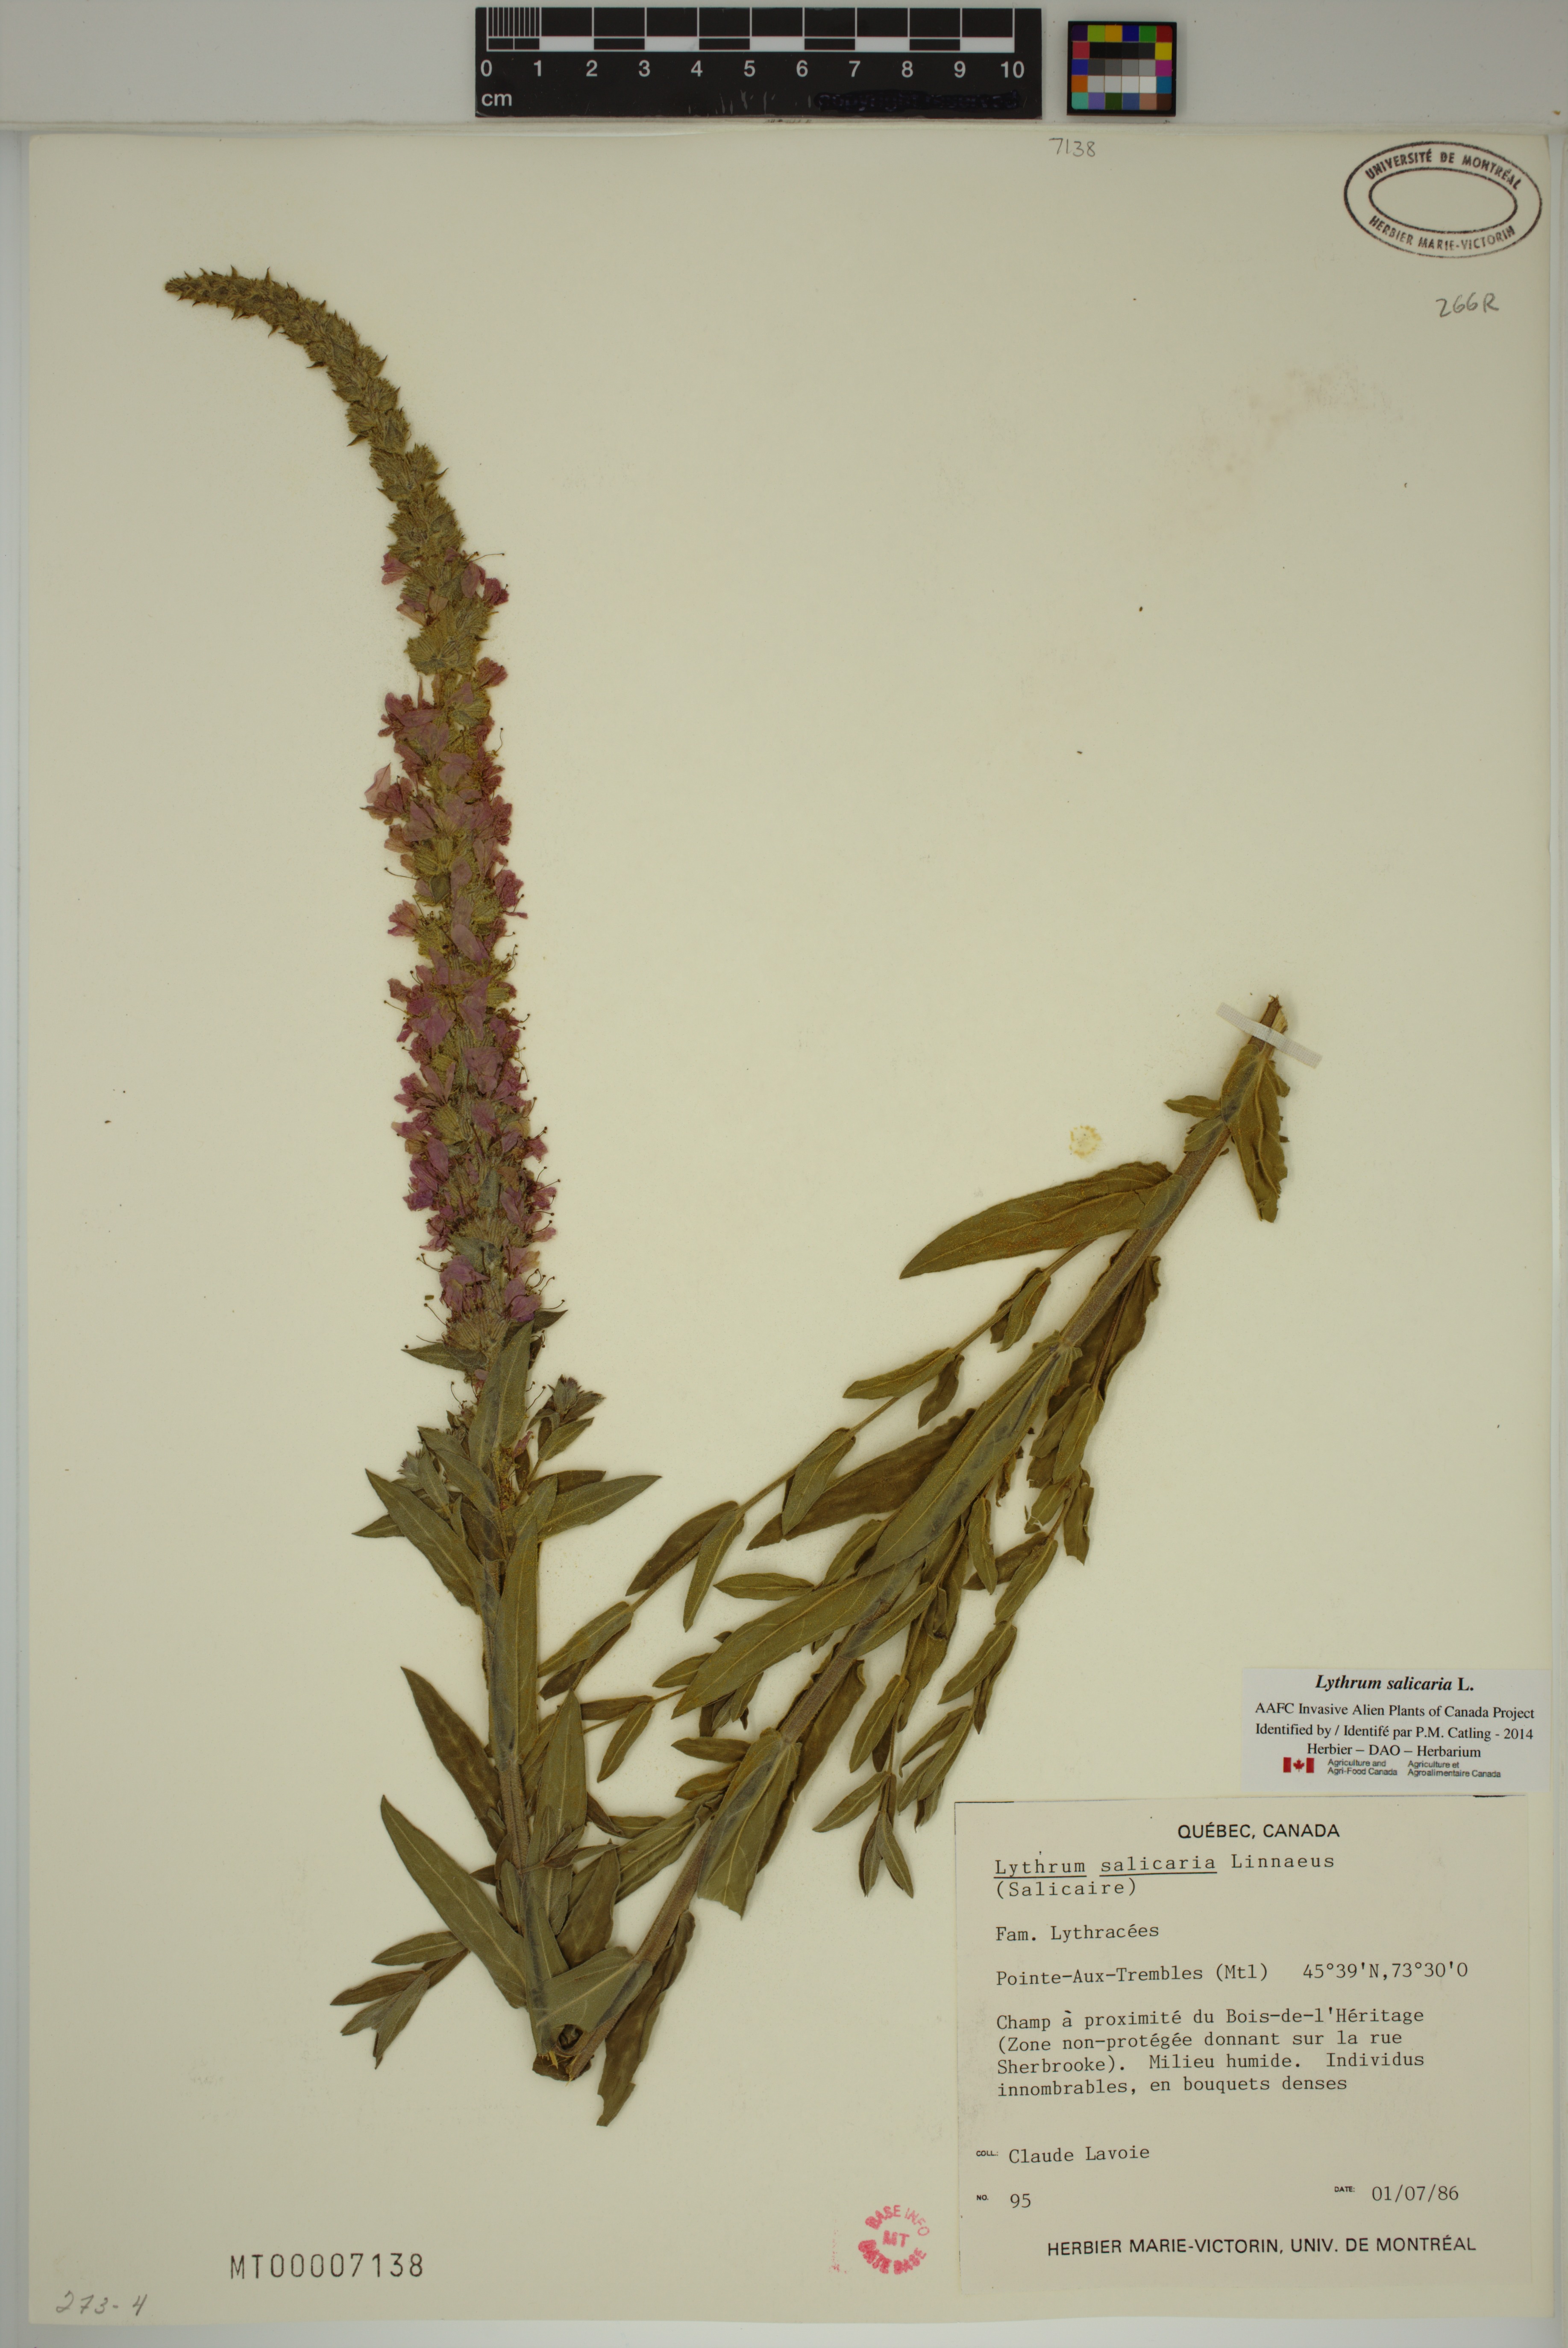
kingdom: Plantae
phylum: Tracheophyta
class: Magnoliopsida
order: Myrtales
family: Lythraceae
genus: Lythrum
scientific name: Lythrum salicaria
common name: Purple loosestrife
